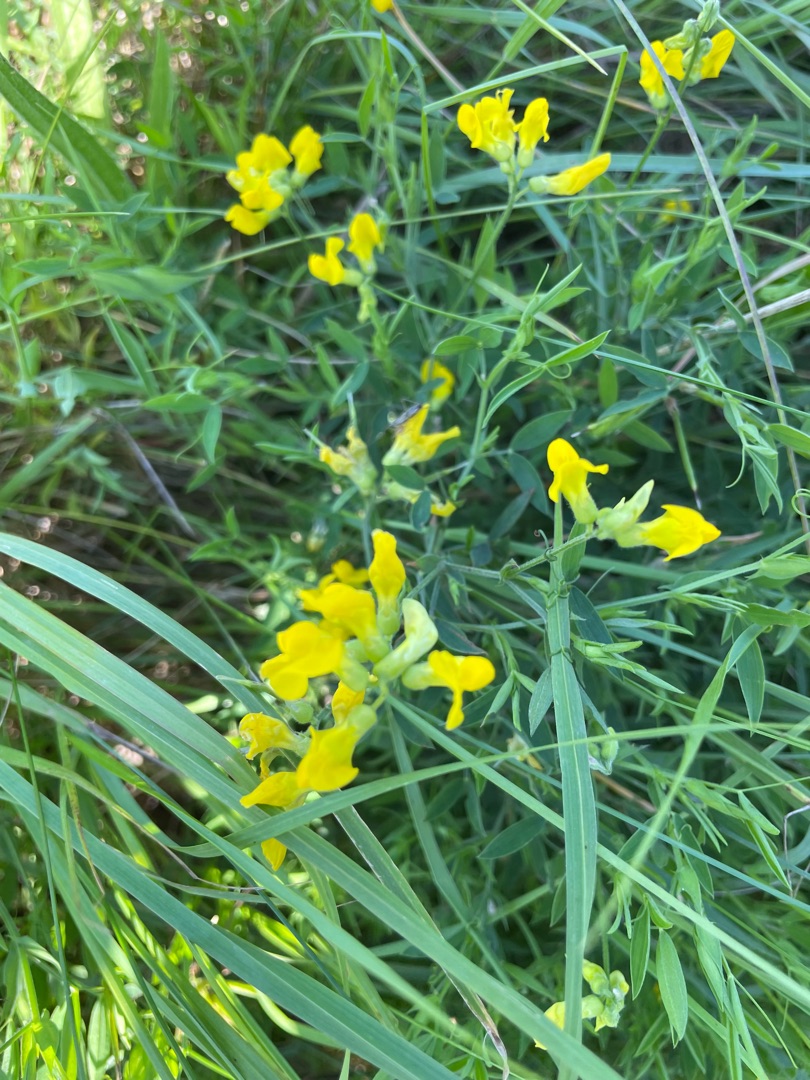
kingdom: Plantae
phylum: Tracheophyta
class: Magnoliopsida
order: Fabales
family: Fabaceae
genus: Lathyrus
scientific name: Lathyrus pratensis
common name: Gul fladbælg
